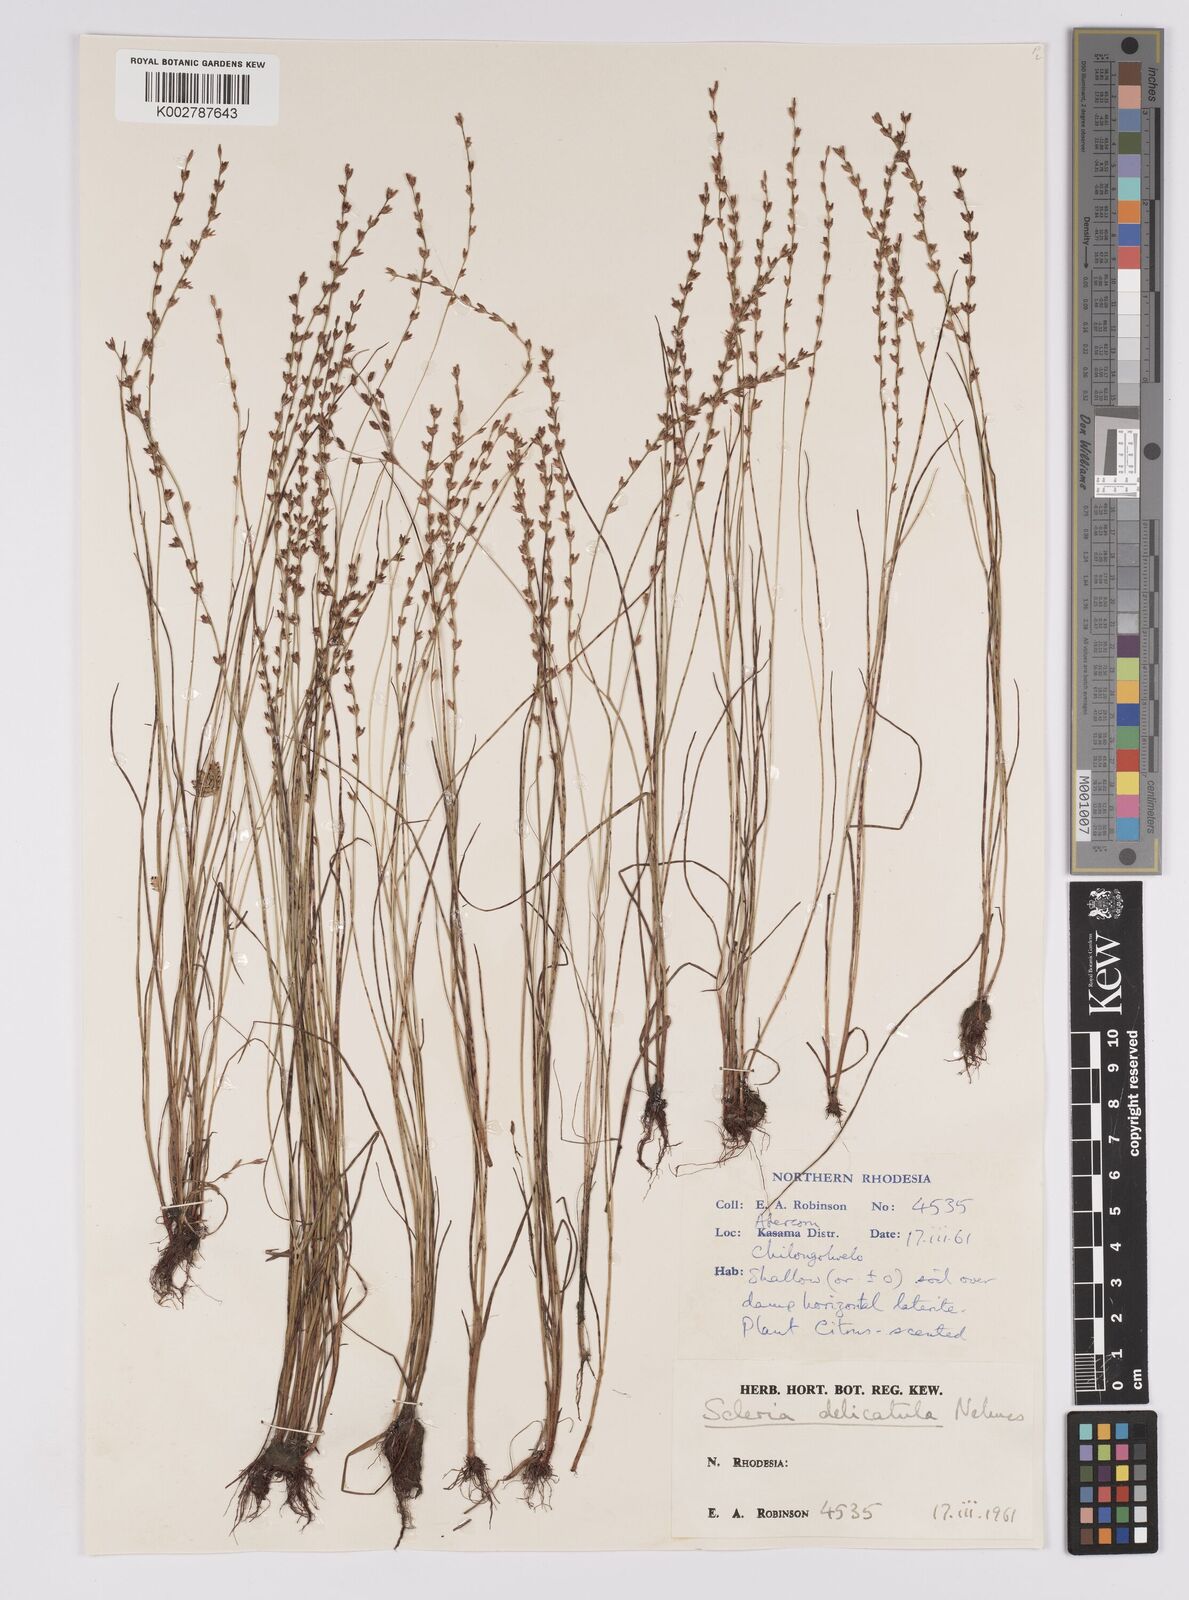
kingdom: Plantae
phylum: Tracheophyta
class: Liliopsida
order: Poales
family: Cyperaceae
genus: Scleria
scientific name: Scleria delicatula
